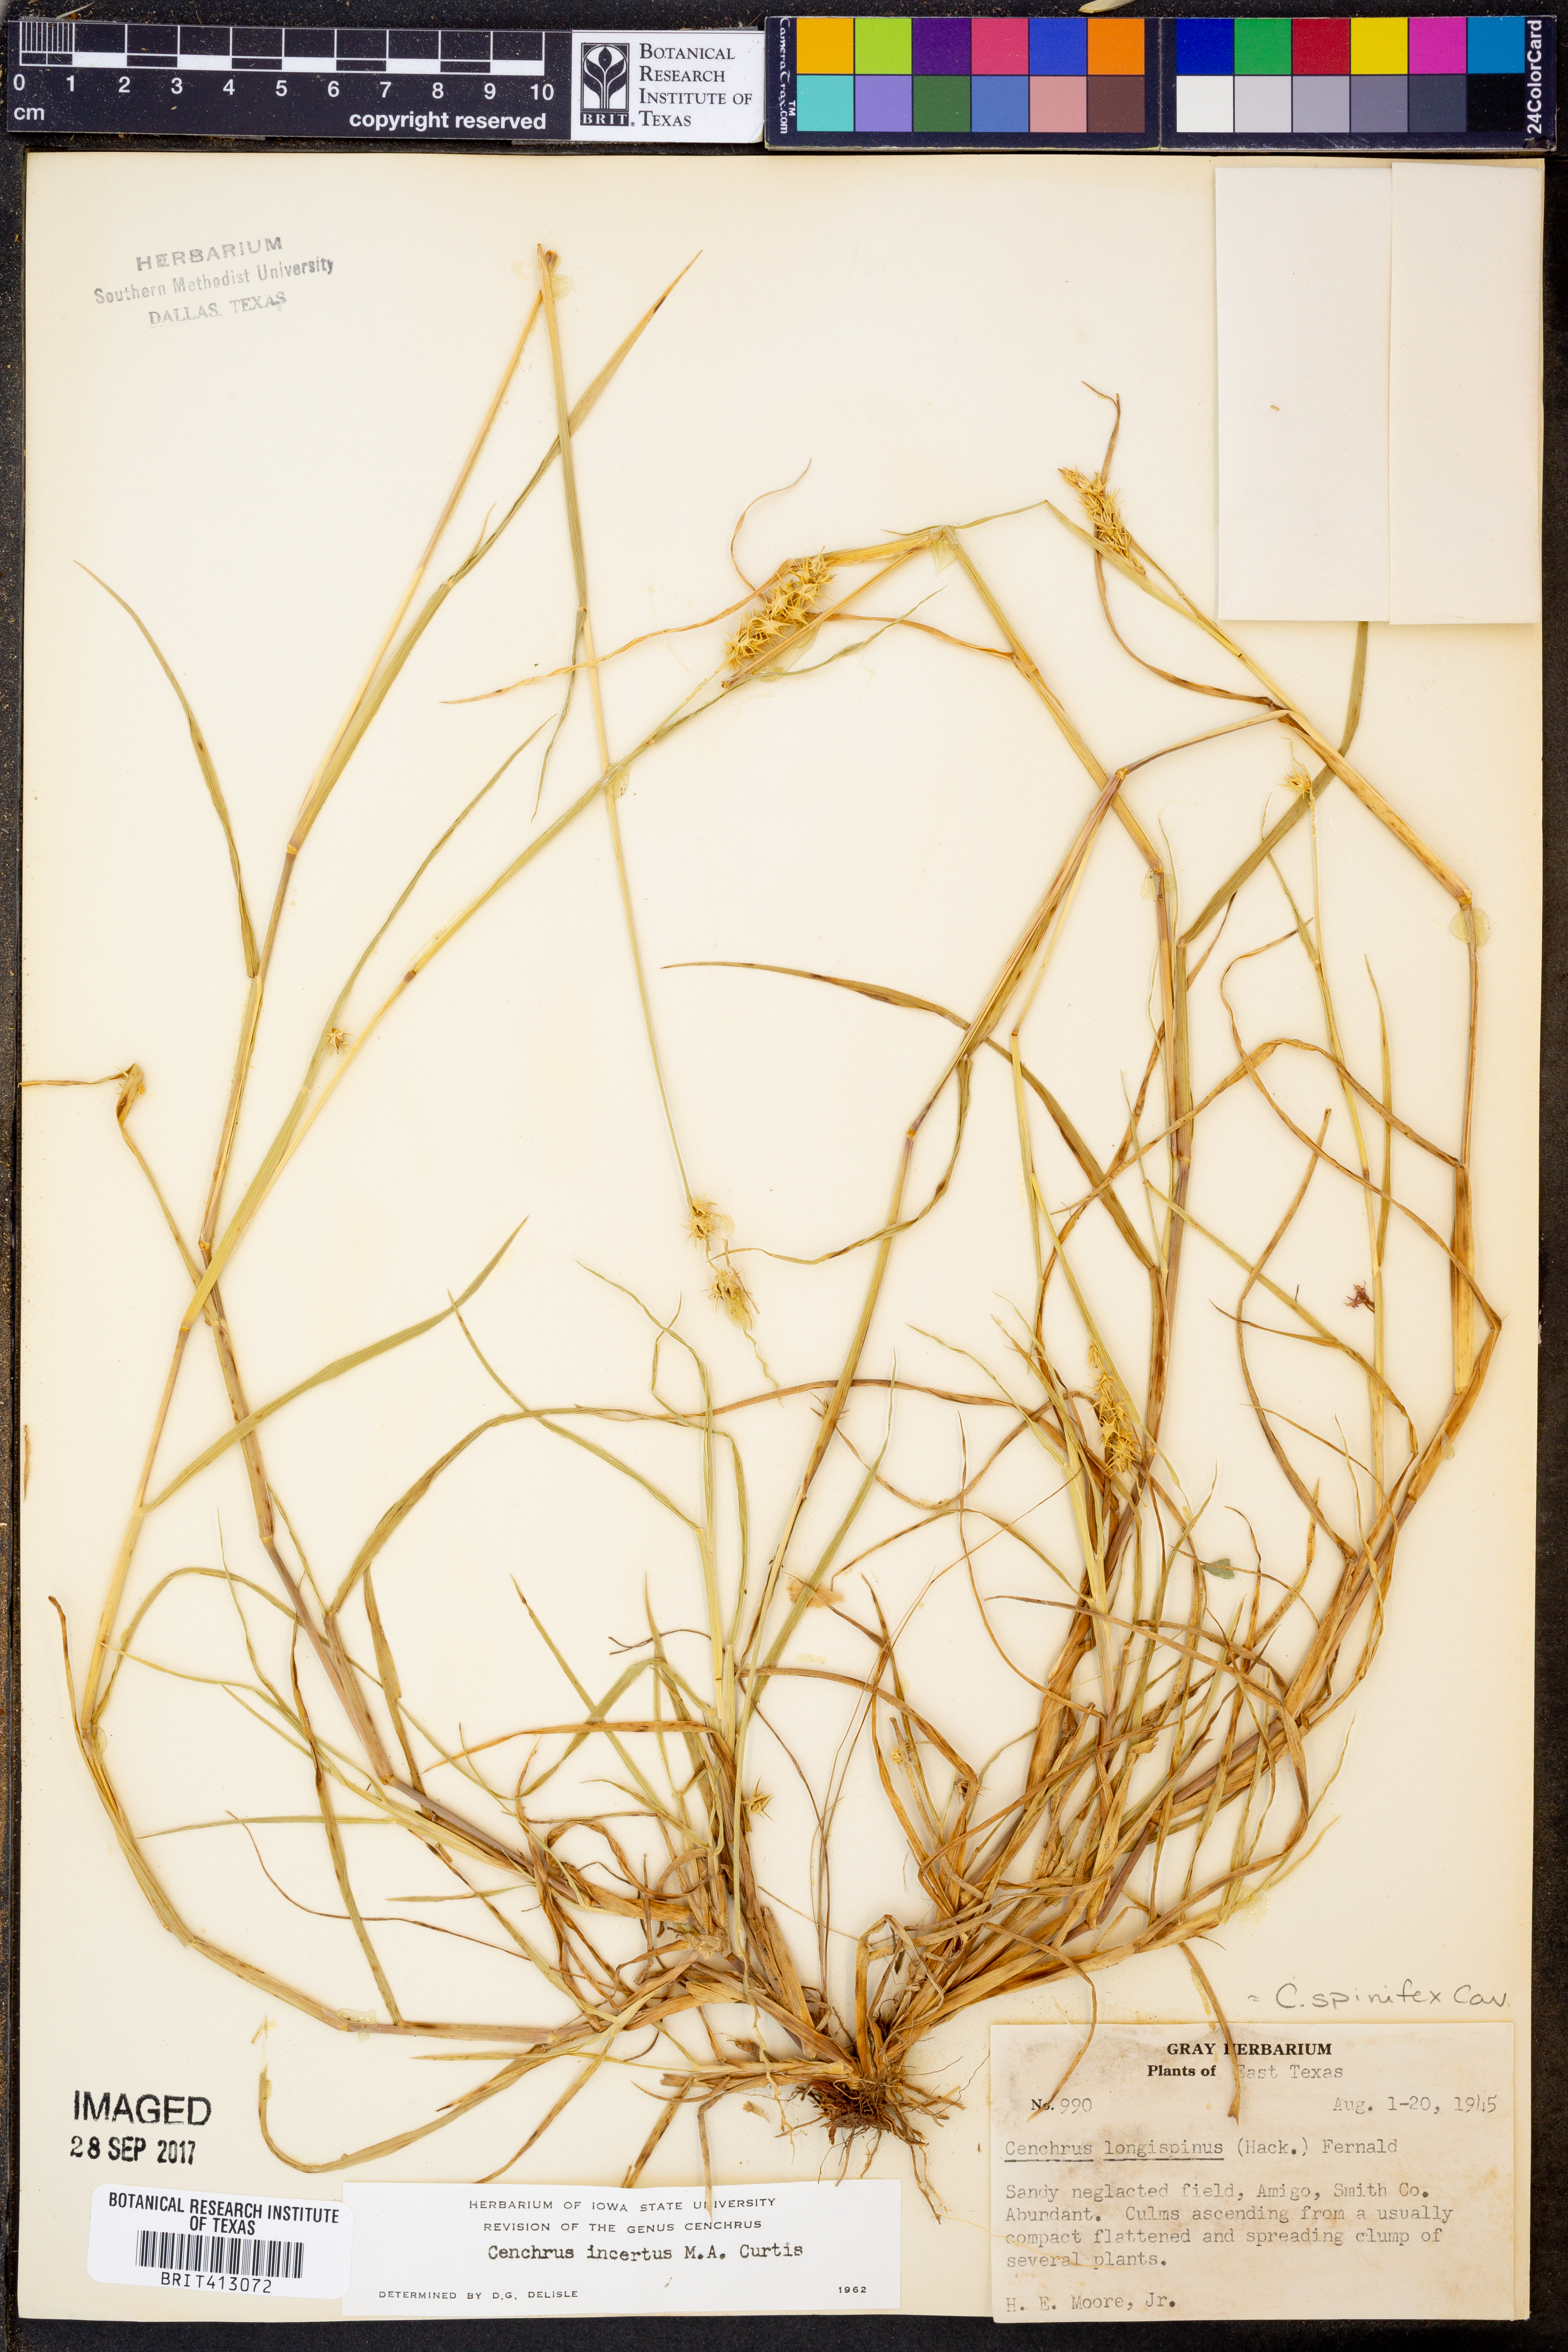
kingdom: Plantae
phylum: Tracheophyta
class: Liliopsida
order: Poales
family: Poaceae
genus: Cenchrus
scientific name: Cenchrus spinifex
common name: Coast sandbur
